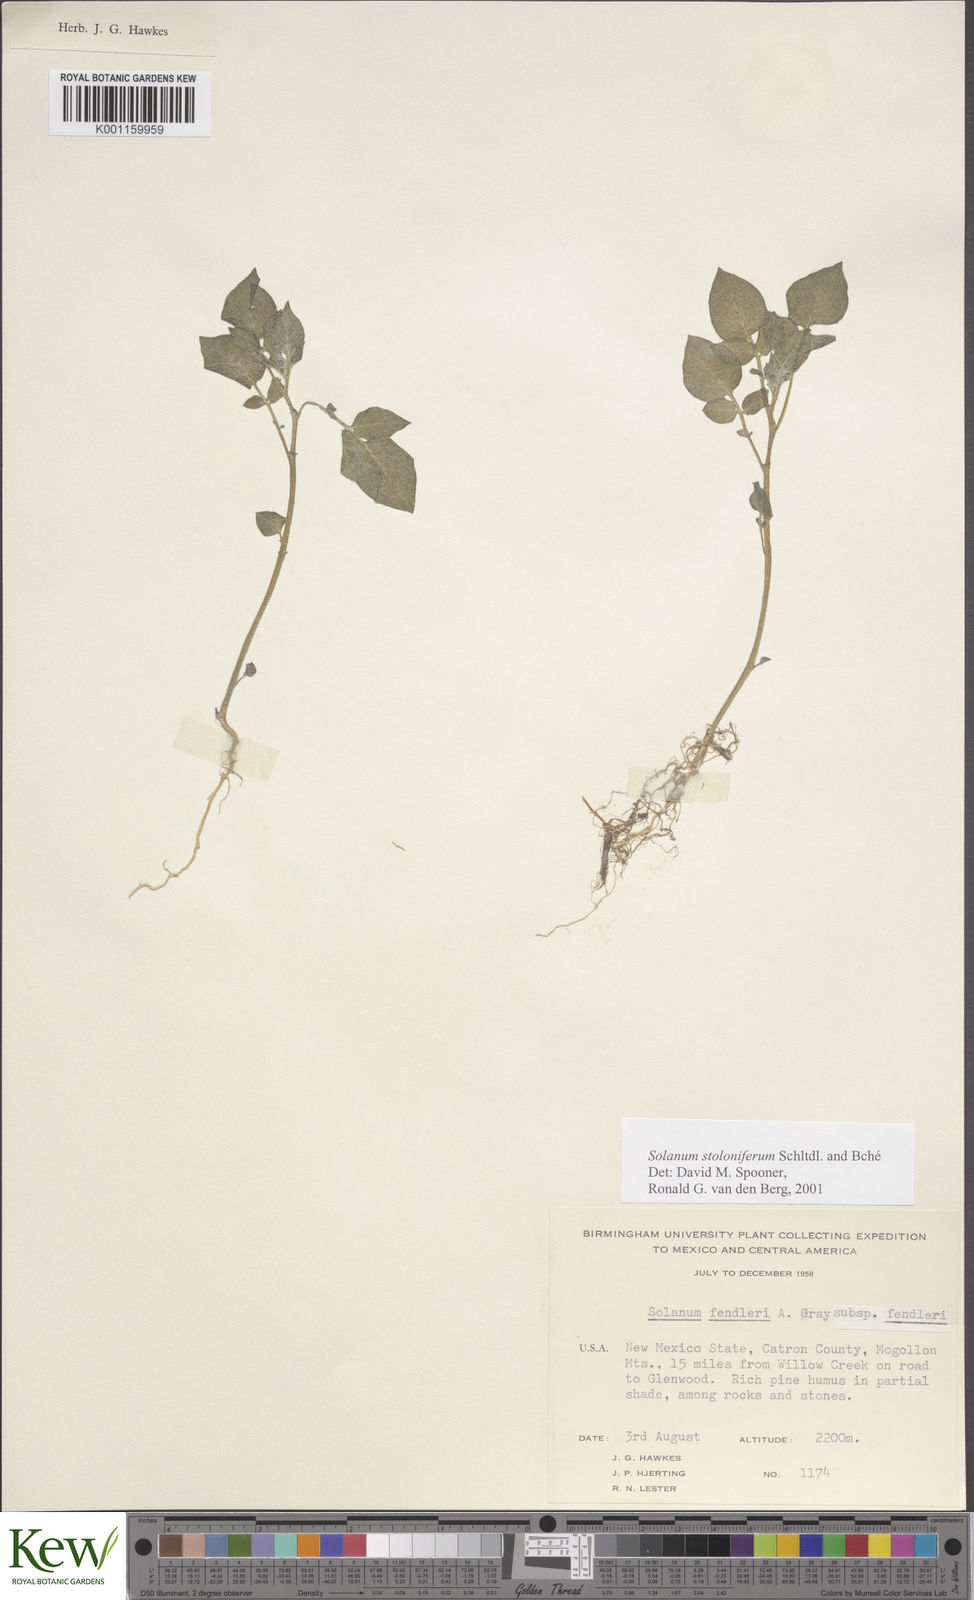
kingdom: Plantae
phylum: Tracheophyta
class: Magnoliopsida
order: Solanales
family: Solanaceae
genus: Solanum
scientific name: Solanum stoloniferum
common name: Fendler's nighshade
